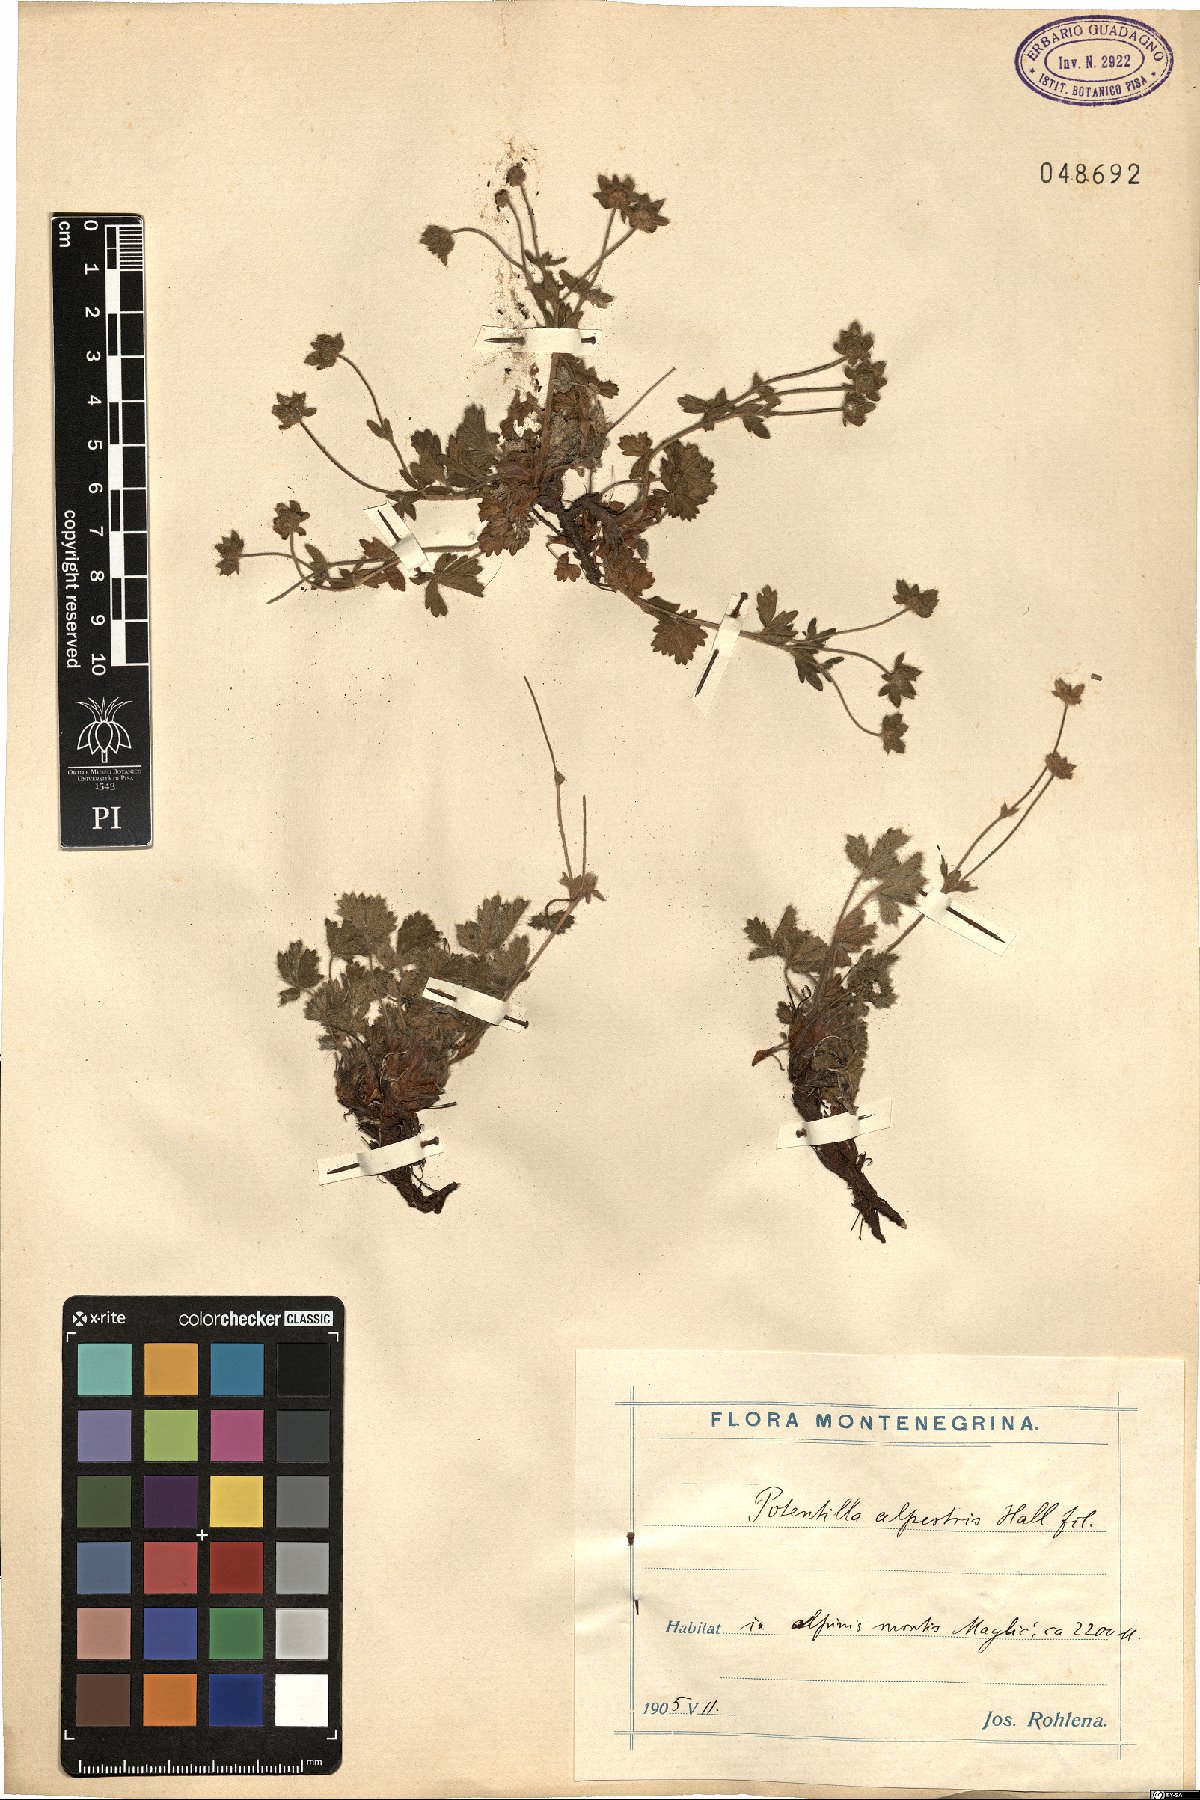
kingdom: Plantae
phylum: Tracheophyta
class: Magnoliopsida
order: Rosales
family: Rosaceae
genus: Potentilla
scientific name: Potentilla crantzii
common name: Alpine cinquefoil
